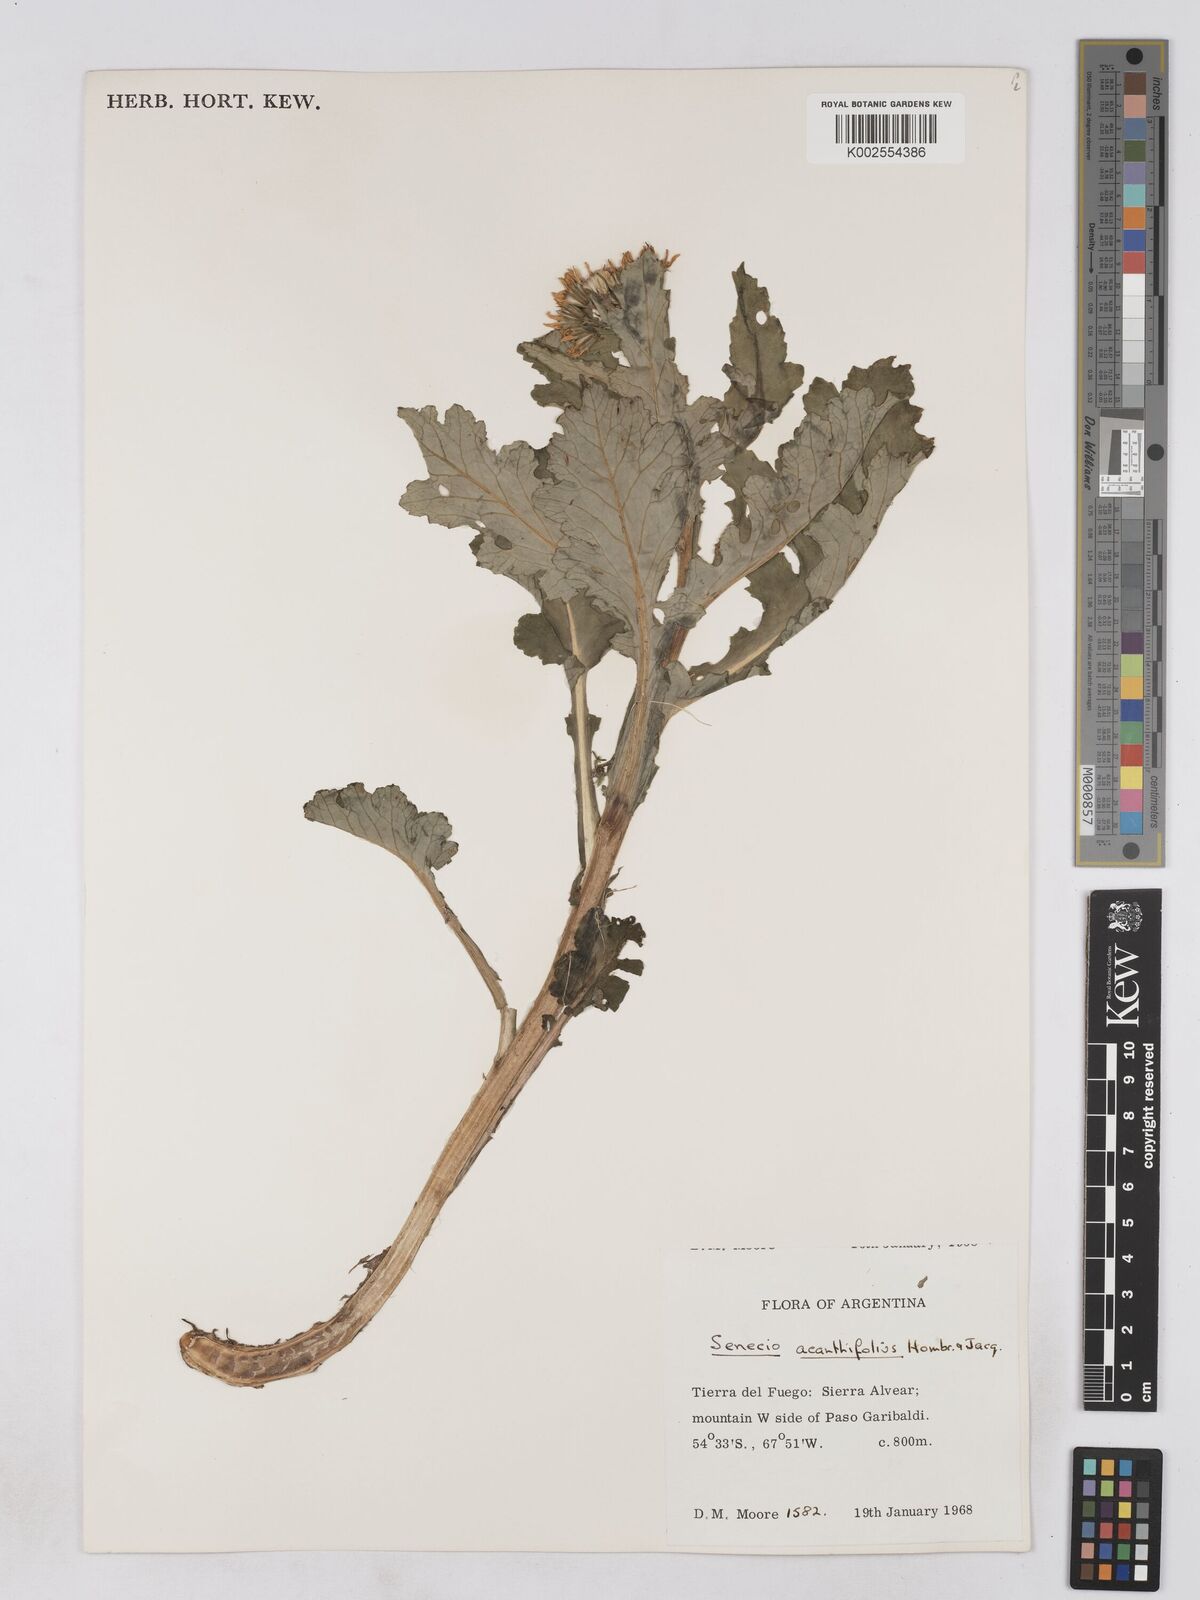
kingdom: Plantae
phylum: Tracheophyta
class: Magnoliopsida
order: Asterales
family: Asteraceae
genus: Iocenes
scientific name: Iocenes
